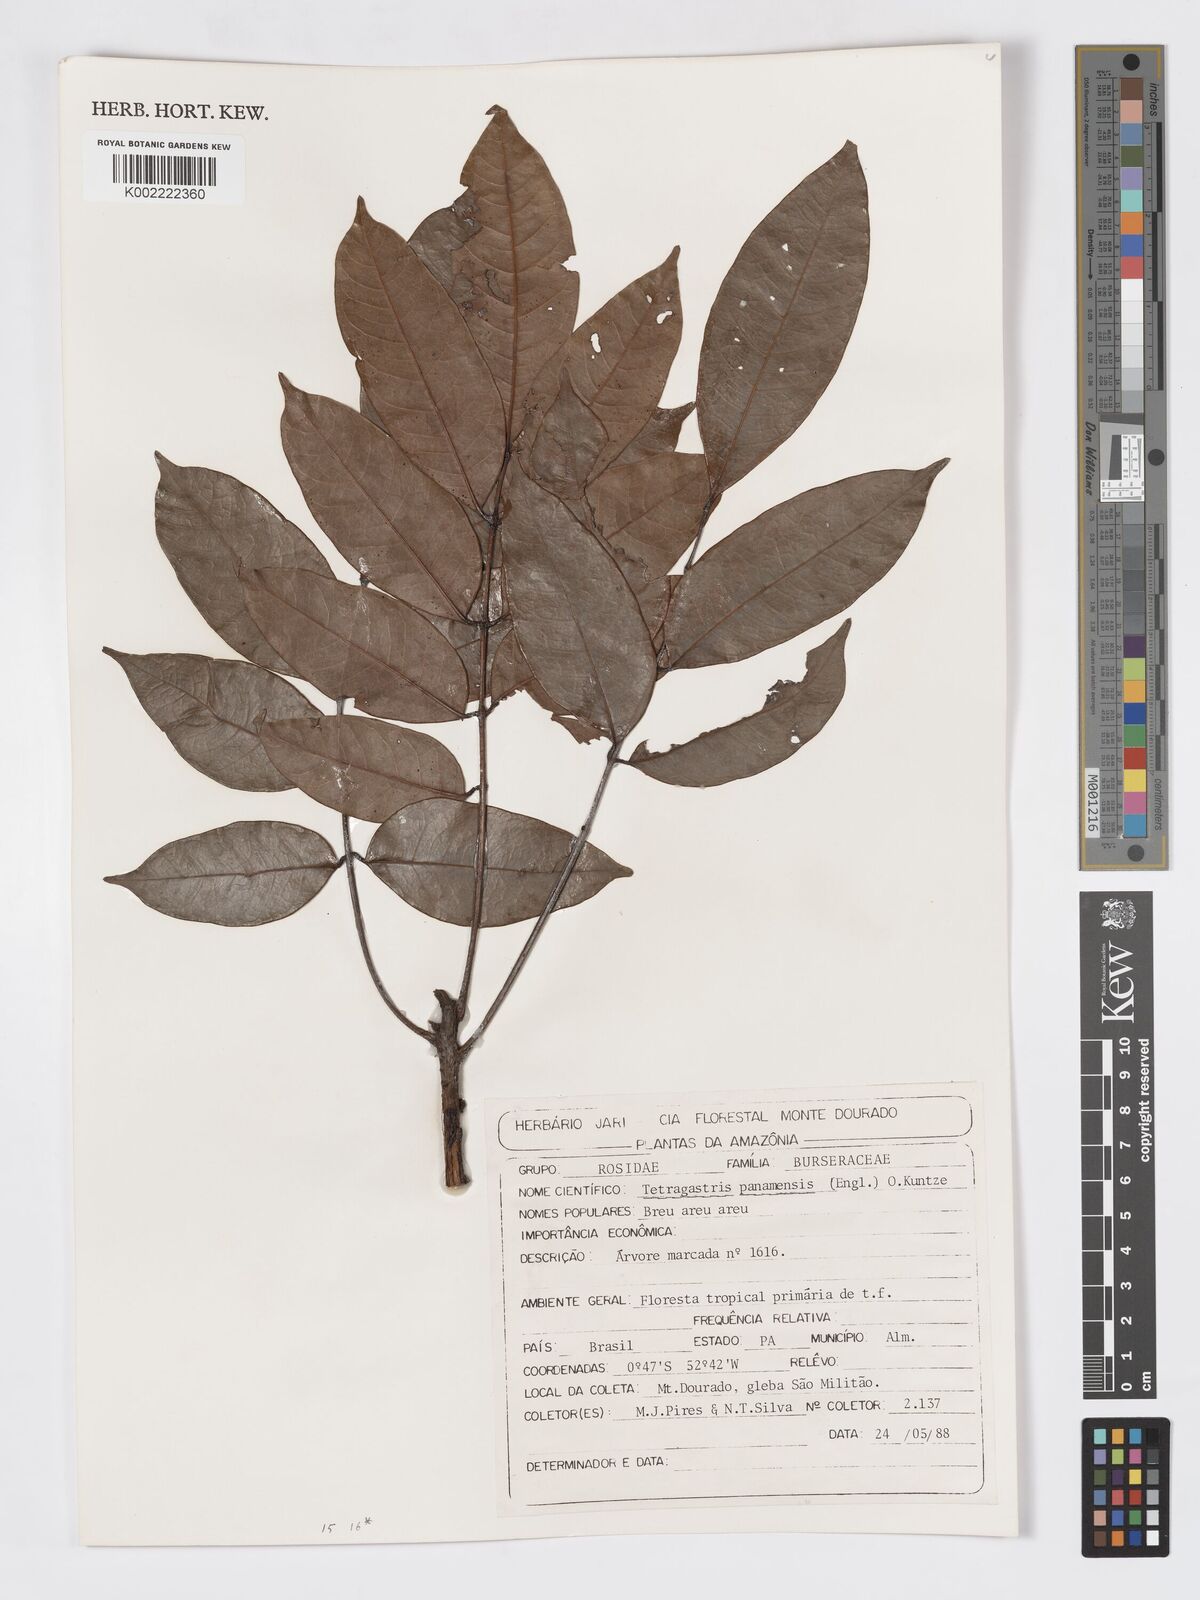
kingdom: Plantae
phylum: Tracheophyta
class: Magnoliopsida
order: Sapindales
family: Burseraceae
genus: Tetragastris
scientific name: Tetragastris panamensis
